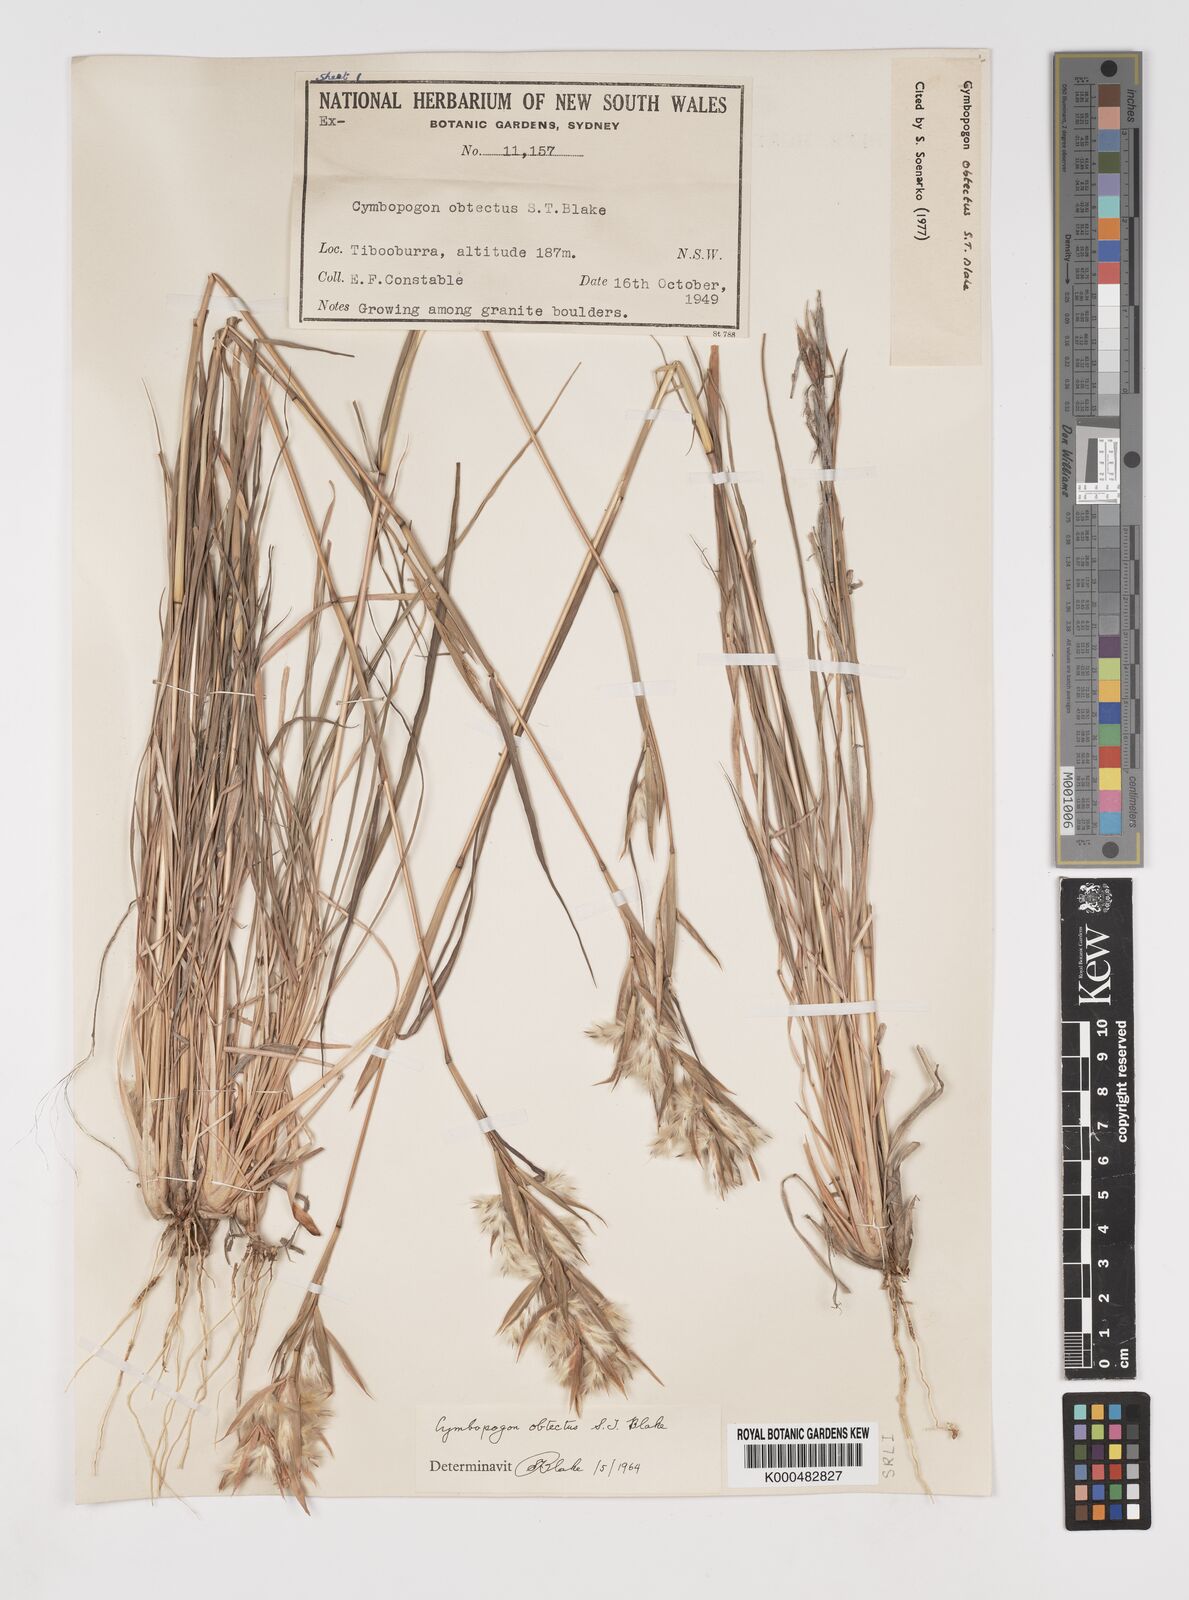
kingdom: Plantae
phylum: Tracheophyta
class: Liliopsida
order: Poales
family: Poaceae
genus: Cymbopogon
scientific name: Cymbopogon obtectus
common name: Silky heads
